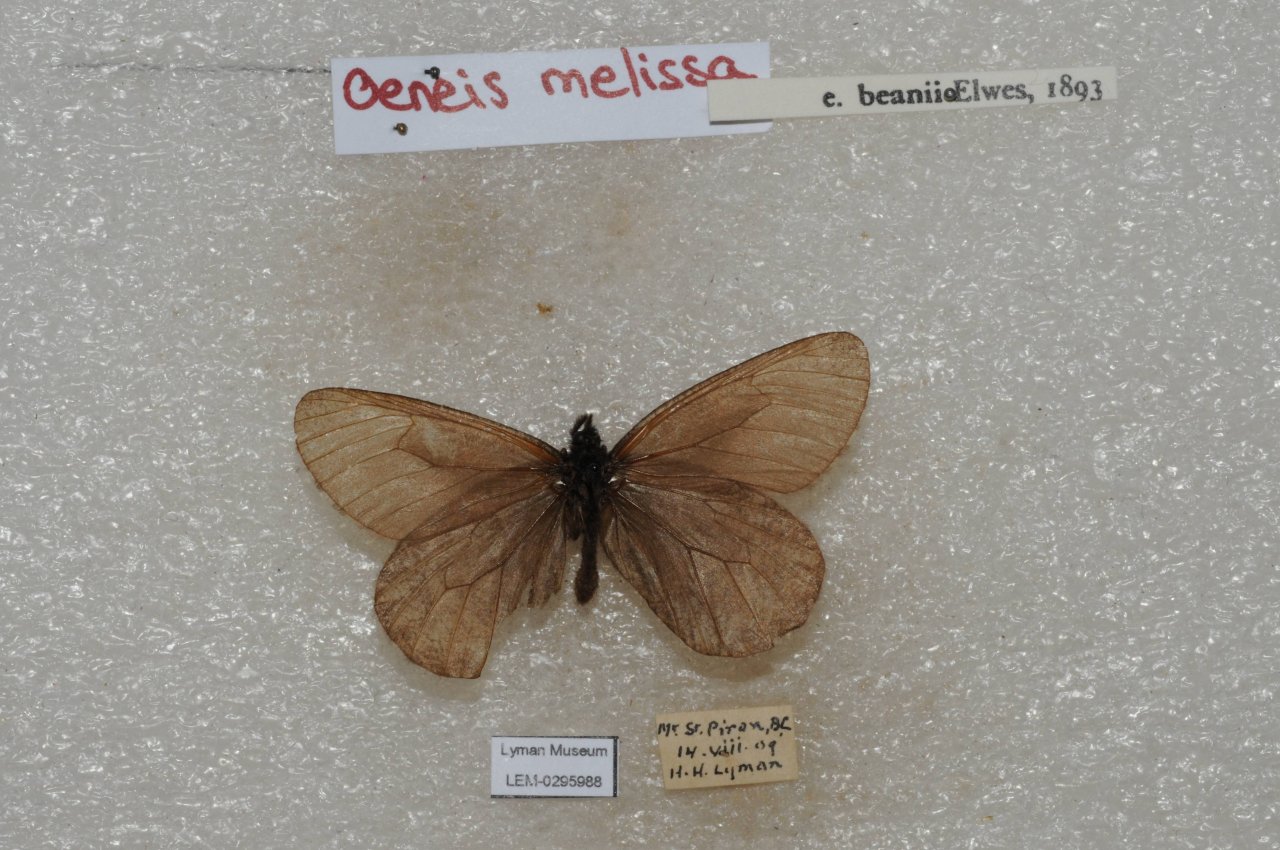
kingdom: Animalia
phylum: Arthropoda
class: Insecta
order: Lepidoptera
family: Lycaenidae
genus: Lycaeides
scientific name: Lycaeides melissa
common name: Melissa Blue
